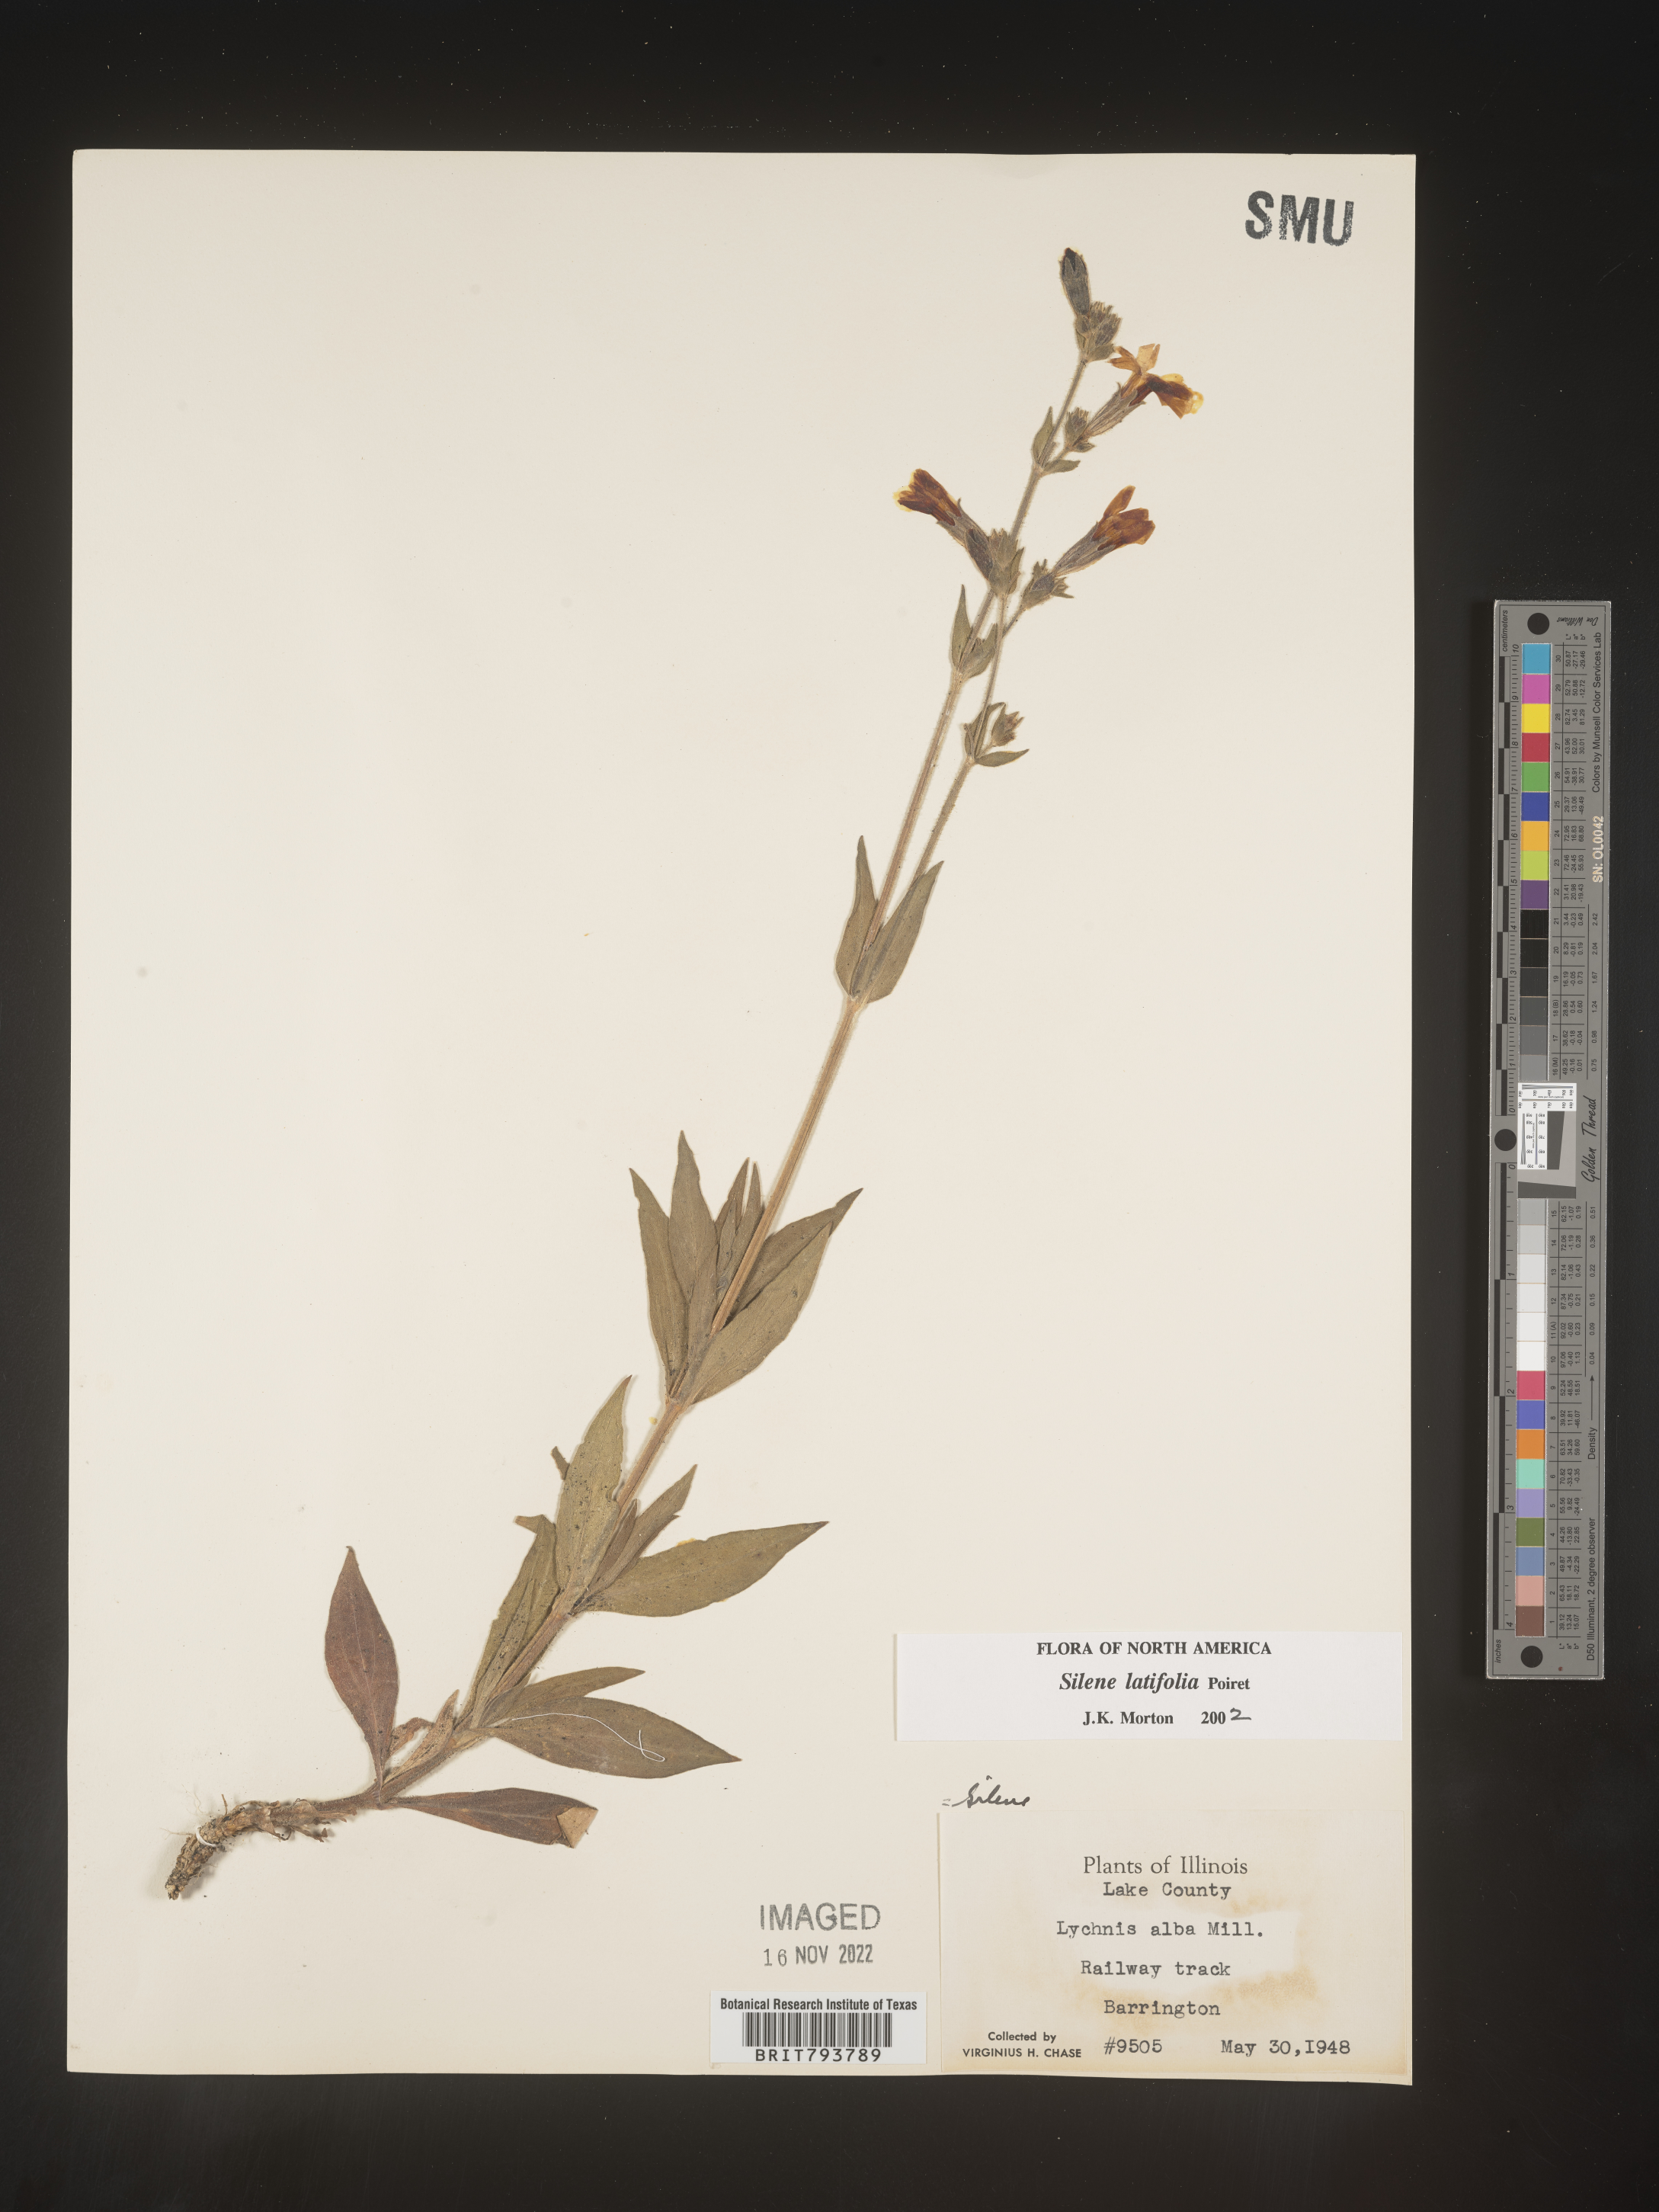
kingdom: Plantae
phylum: Tracheophyta
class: Magnoliopsida
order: Caryophyllales
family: Caryophyllaceae
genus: Silene
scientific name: Silene latifolia
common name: White campion
